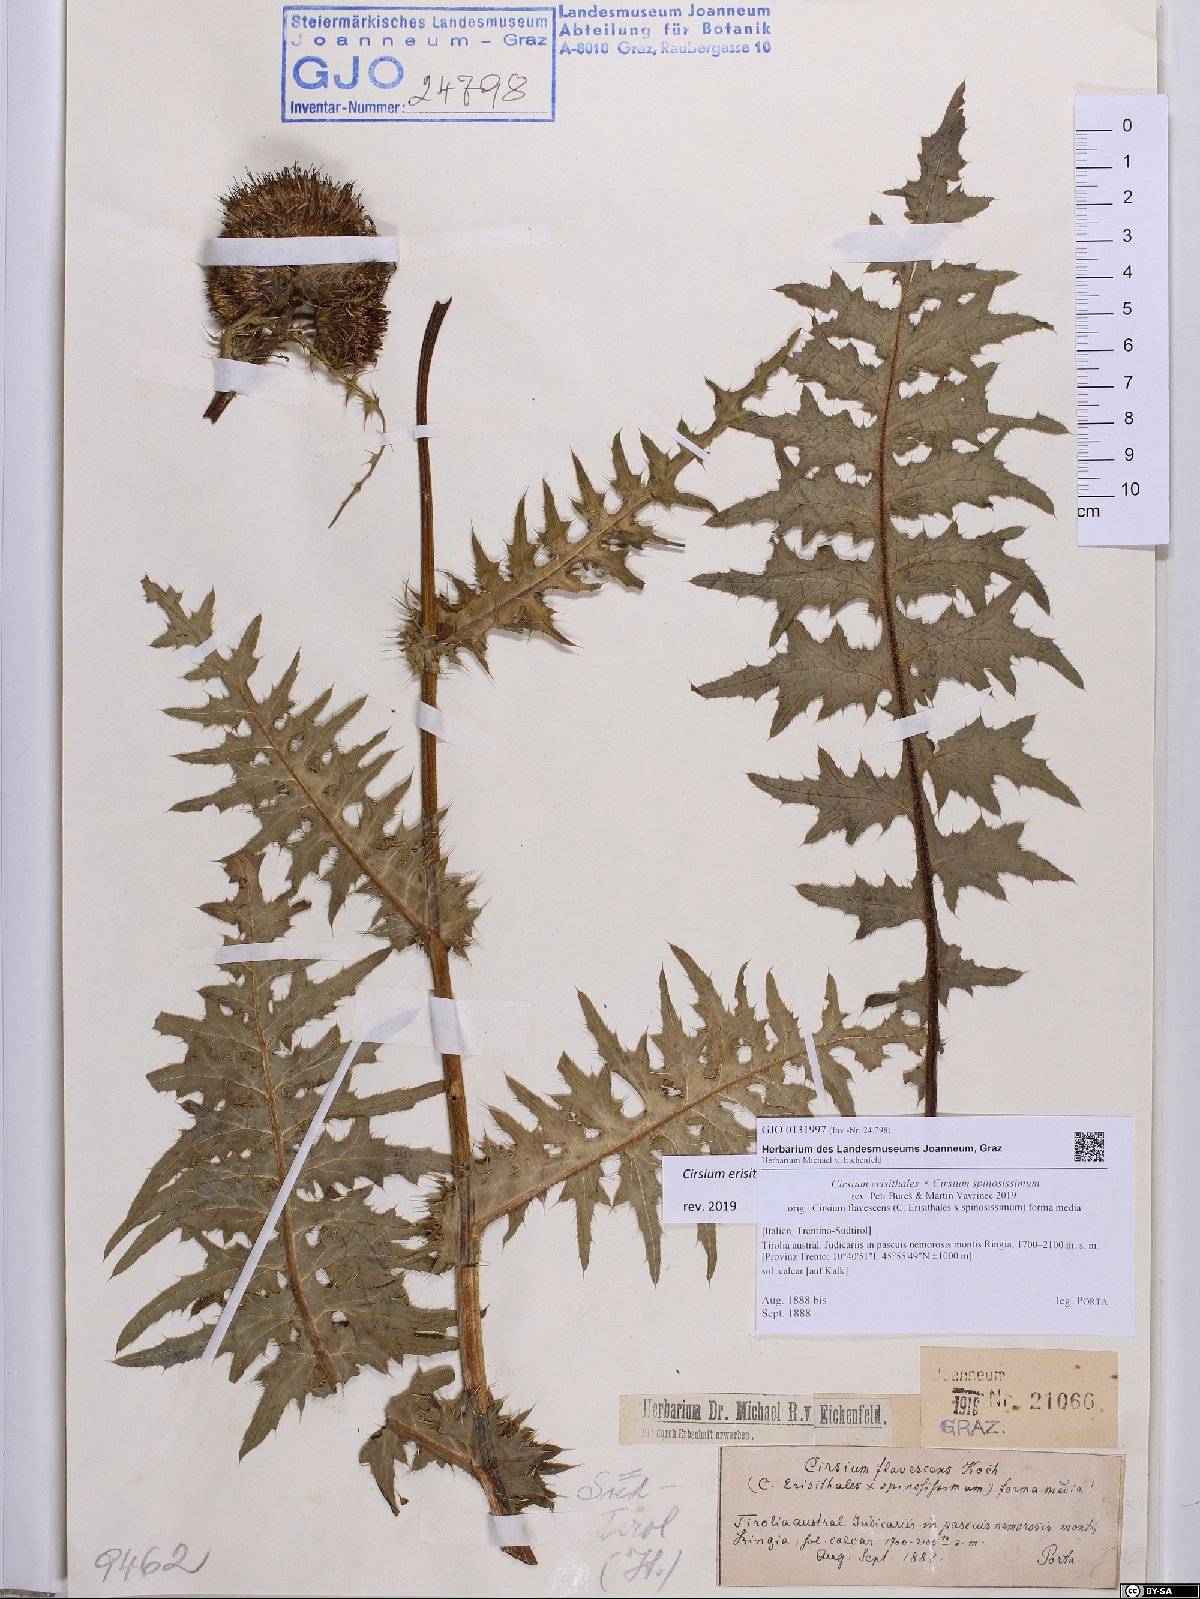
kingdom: Plantae
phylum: Tracheophyta
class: Magnoliopsida
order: Asterales
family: Asteraceae
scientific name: Asteraceae
